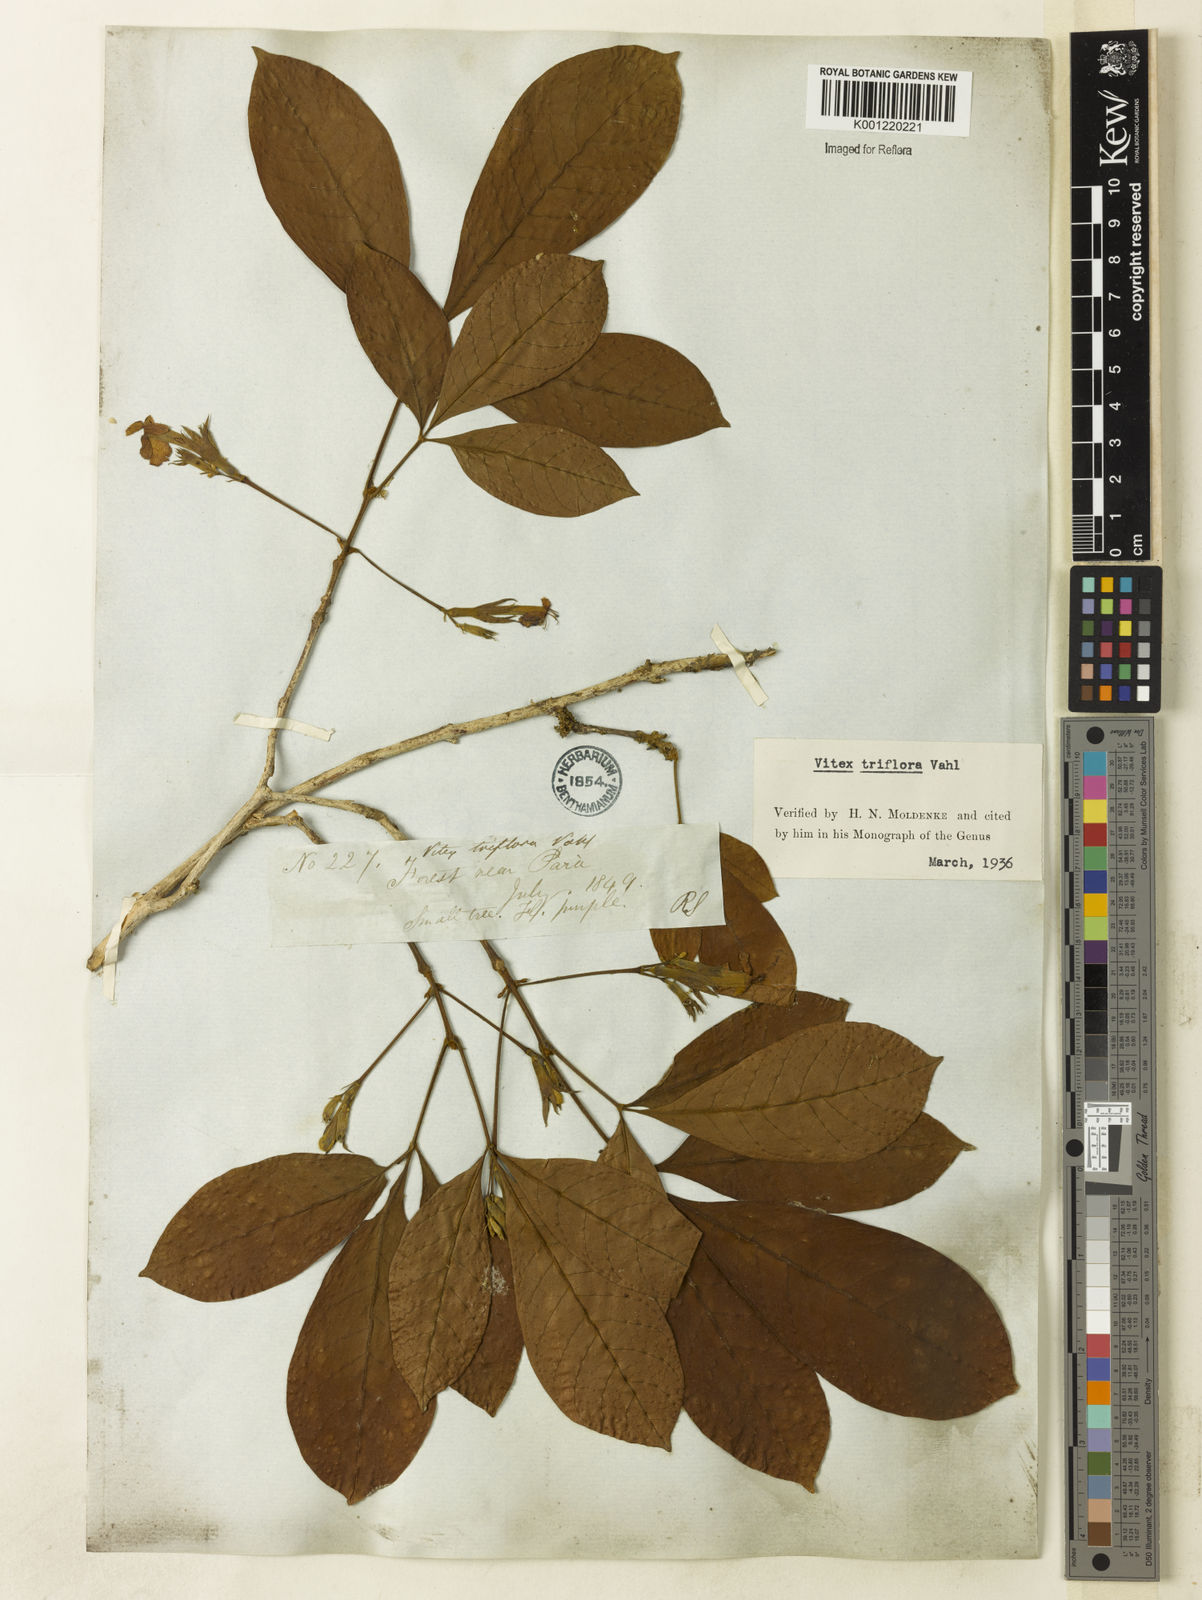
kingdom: Plantae
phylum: Tracheophyta
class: Magnoliopsida
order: Lamiales
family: Lamiaceae
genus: Vitex
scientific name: Vitex triflora
